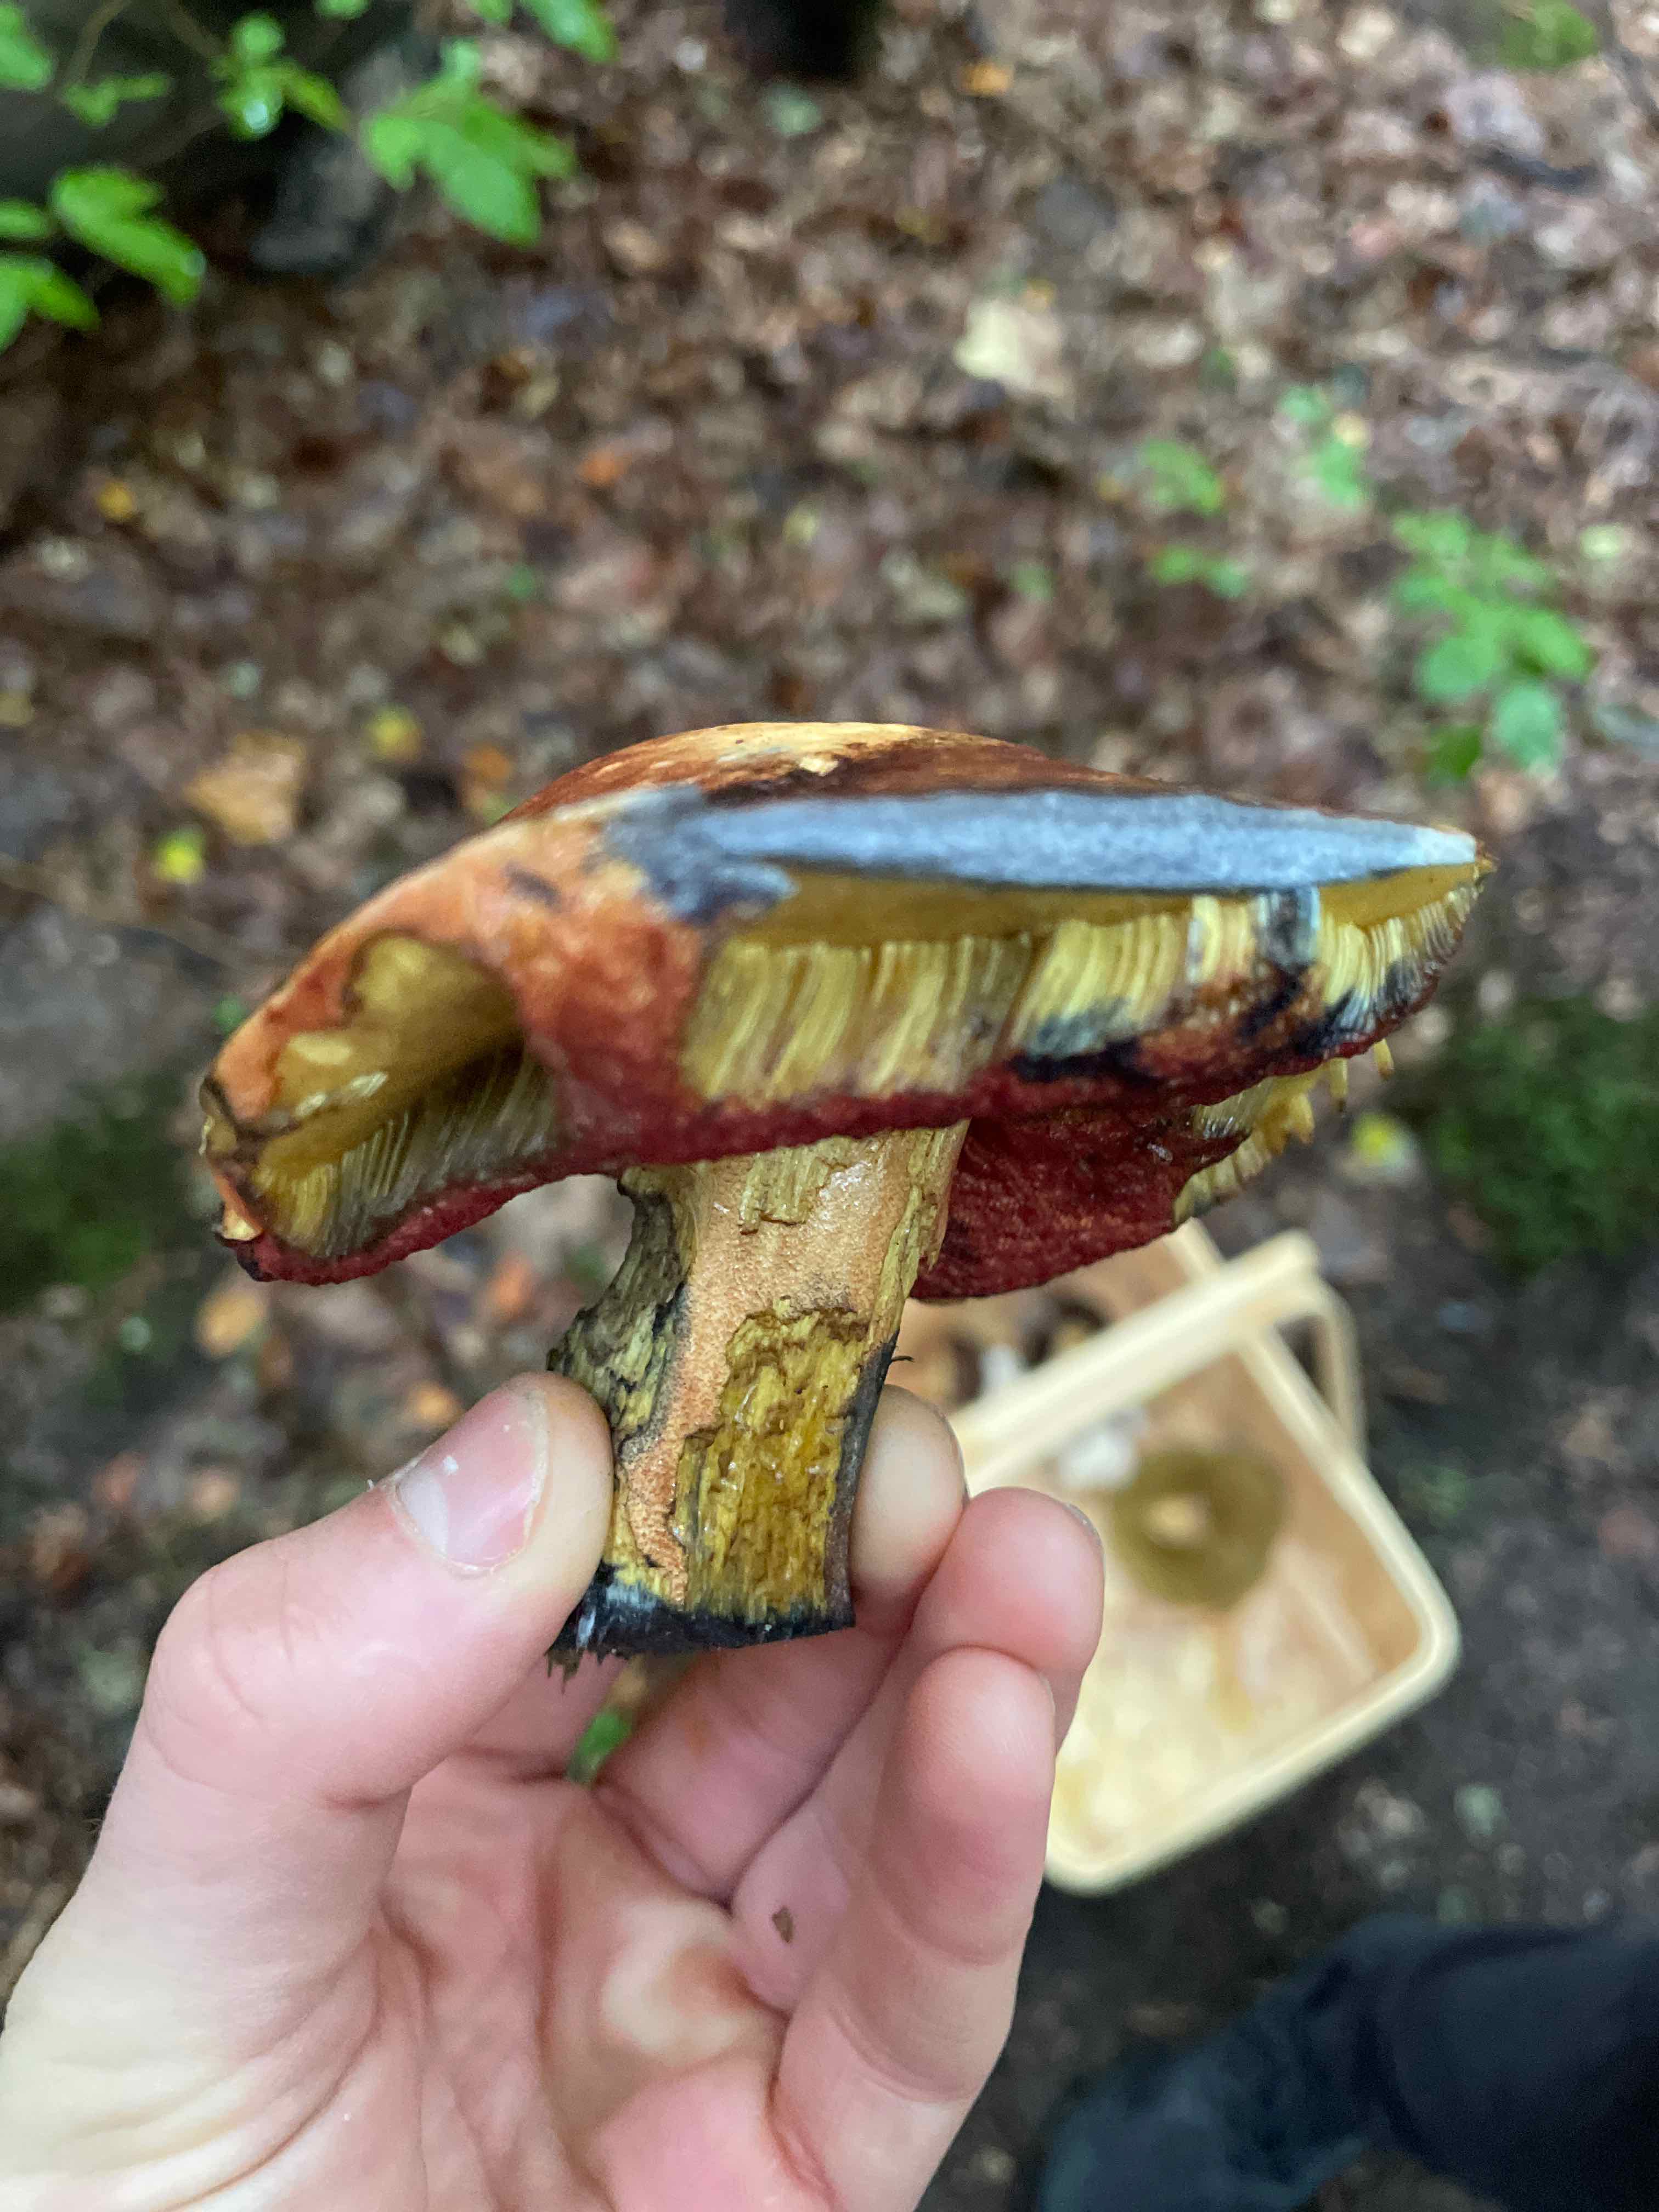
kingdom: Fungi
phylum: Basidiomycota
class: Agaricomycetes
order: Boletales
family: Boletaceae
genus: Neoboletus
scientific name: Neoboletus erythropus
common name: punktstokket indigorørhat
